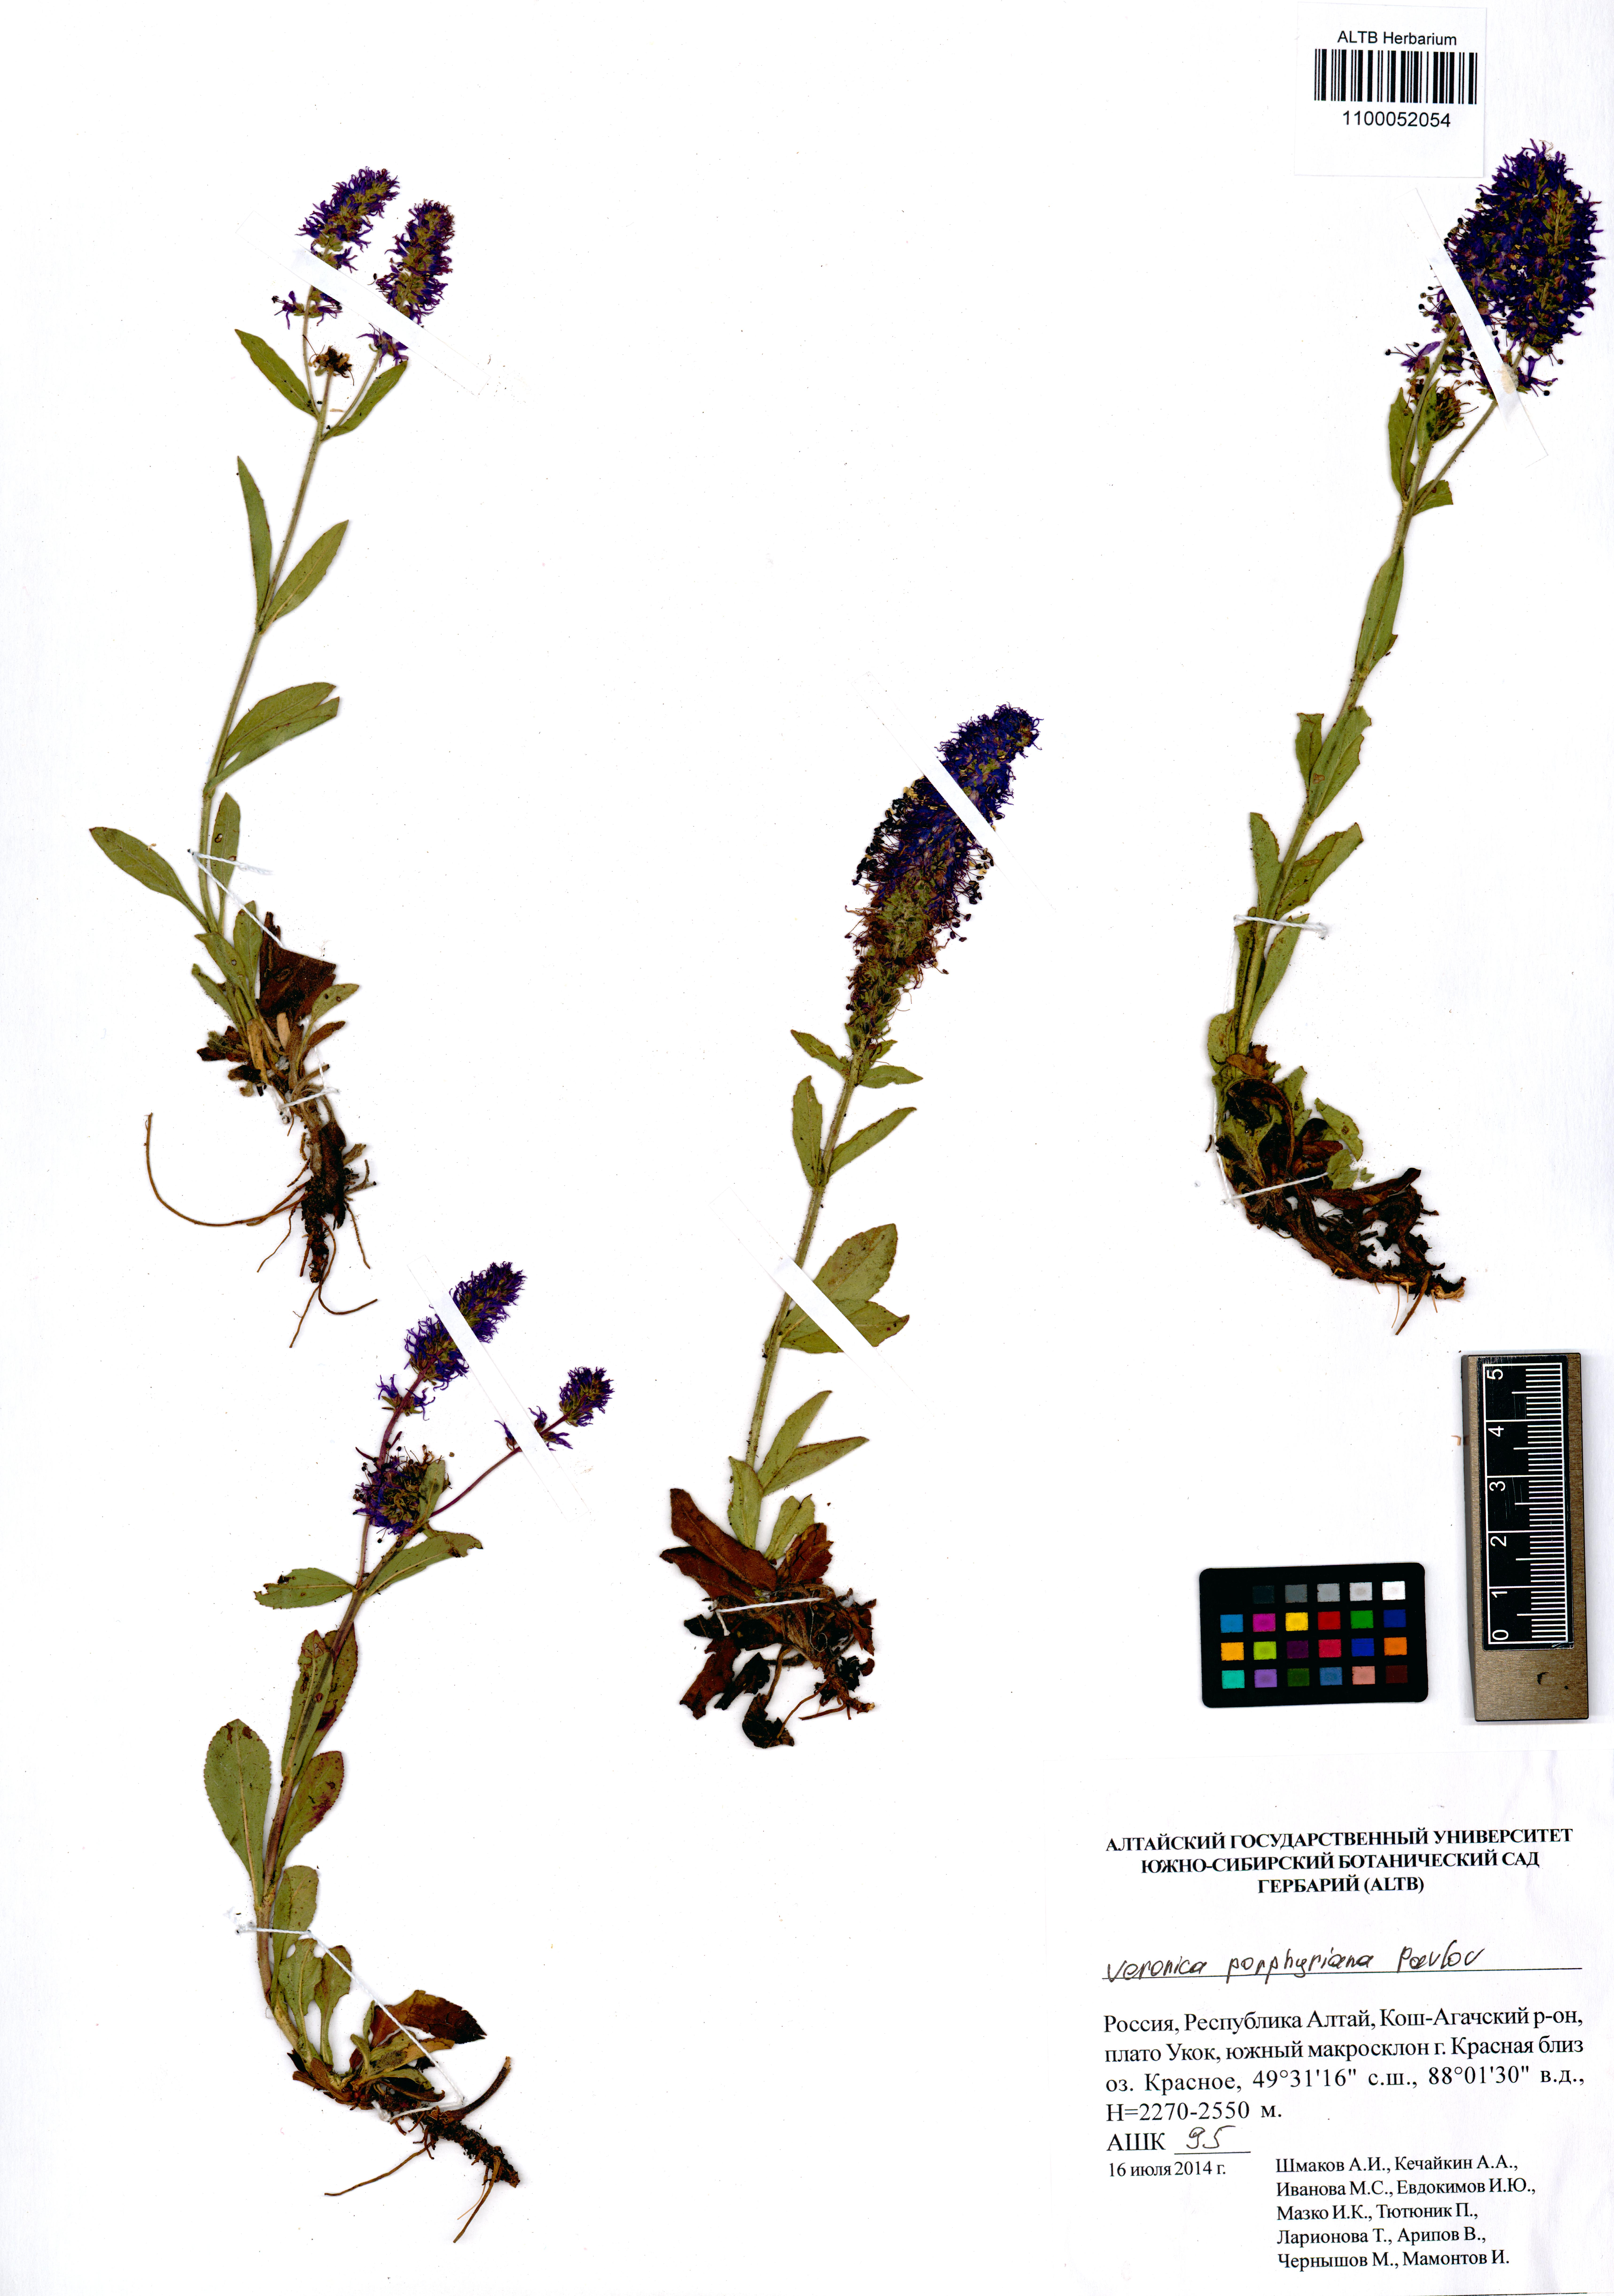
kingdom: Plantae
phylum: Tracheophyta
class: Magnoliopsida
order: Lamiales
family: Plantaginaceae
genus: Veronica
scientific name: Veronica porphyriana
